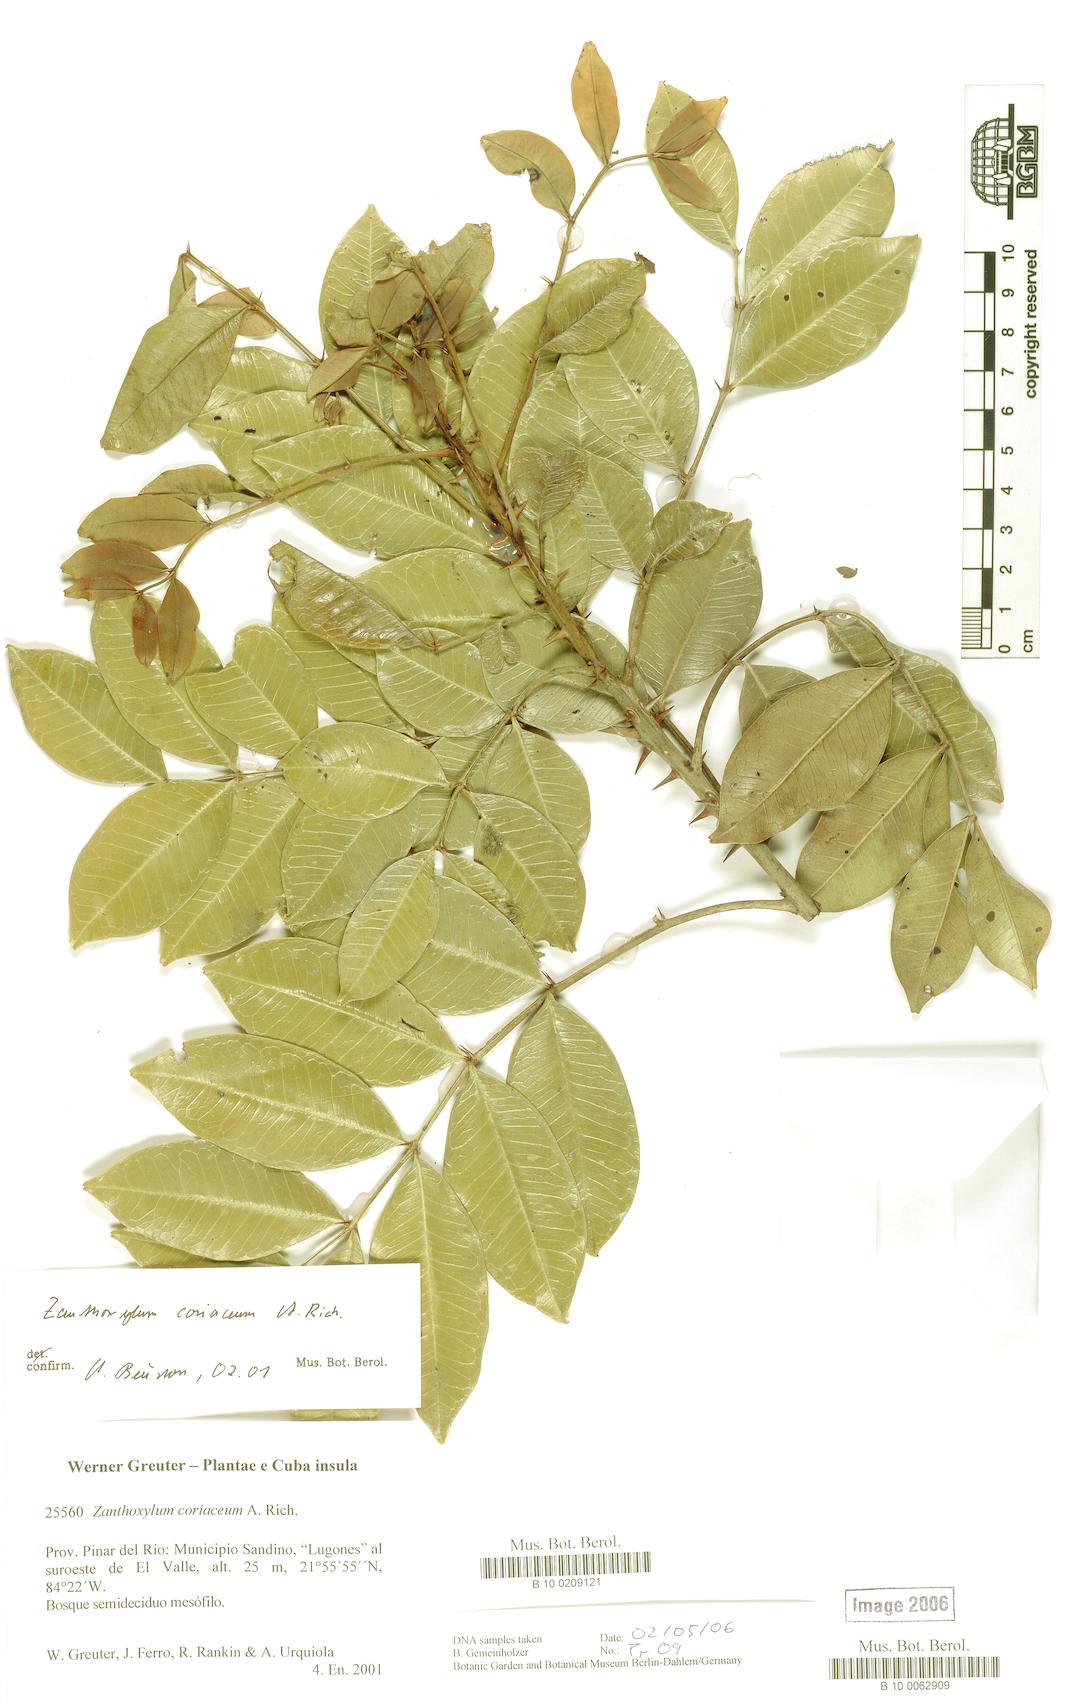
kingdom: Plantae
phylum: Tracheophyta
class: Magnoliopsida
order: Sapindales
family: Rutaceae
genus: Zanthoxylum
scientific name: Zanthoxylum spinosum
